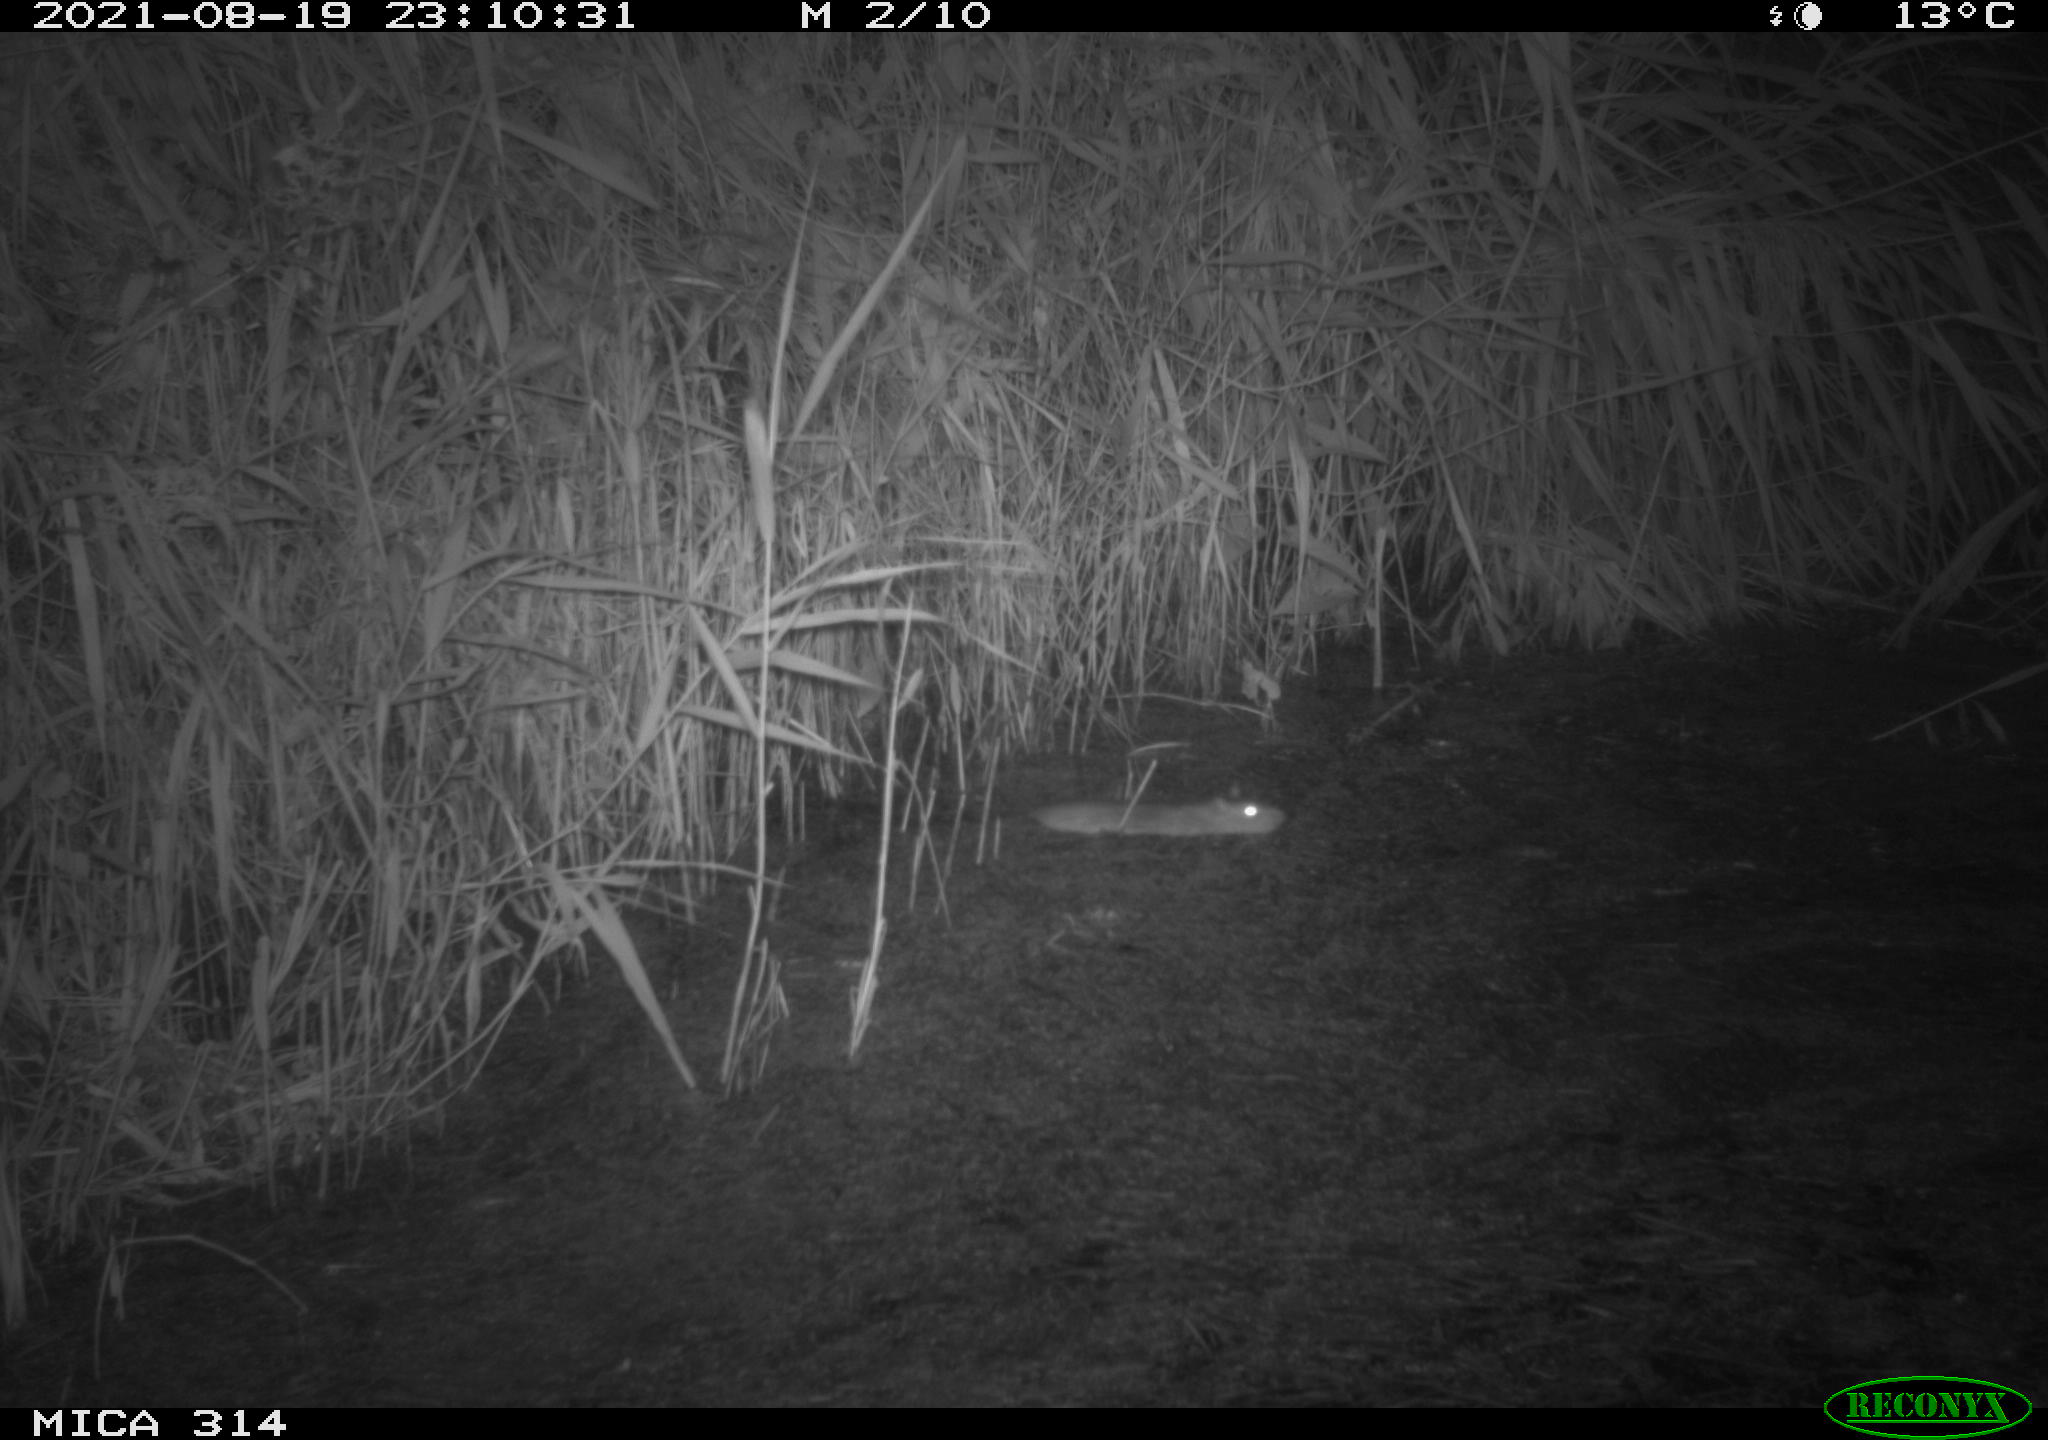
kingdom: Animalia
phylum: Chordata
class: Mammalia
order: Rodentia
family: Muridae
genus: Rattus
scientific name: Rattus norvegicus
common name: Brown rat
